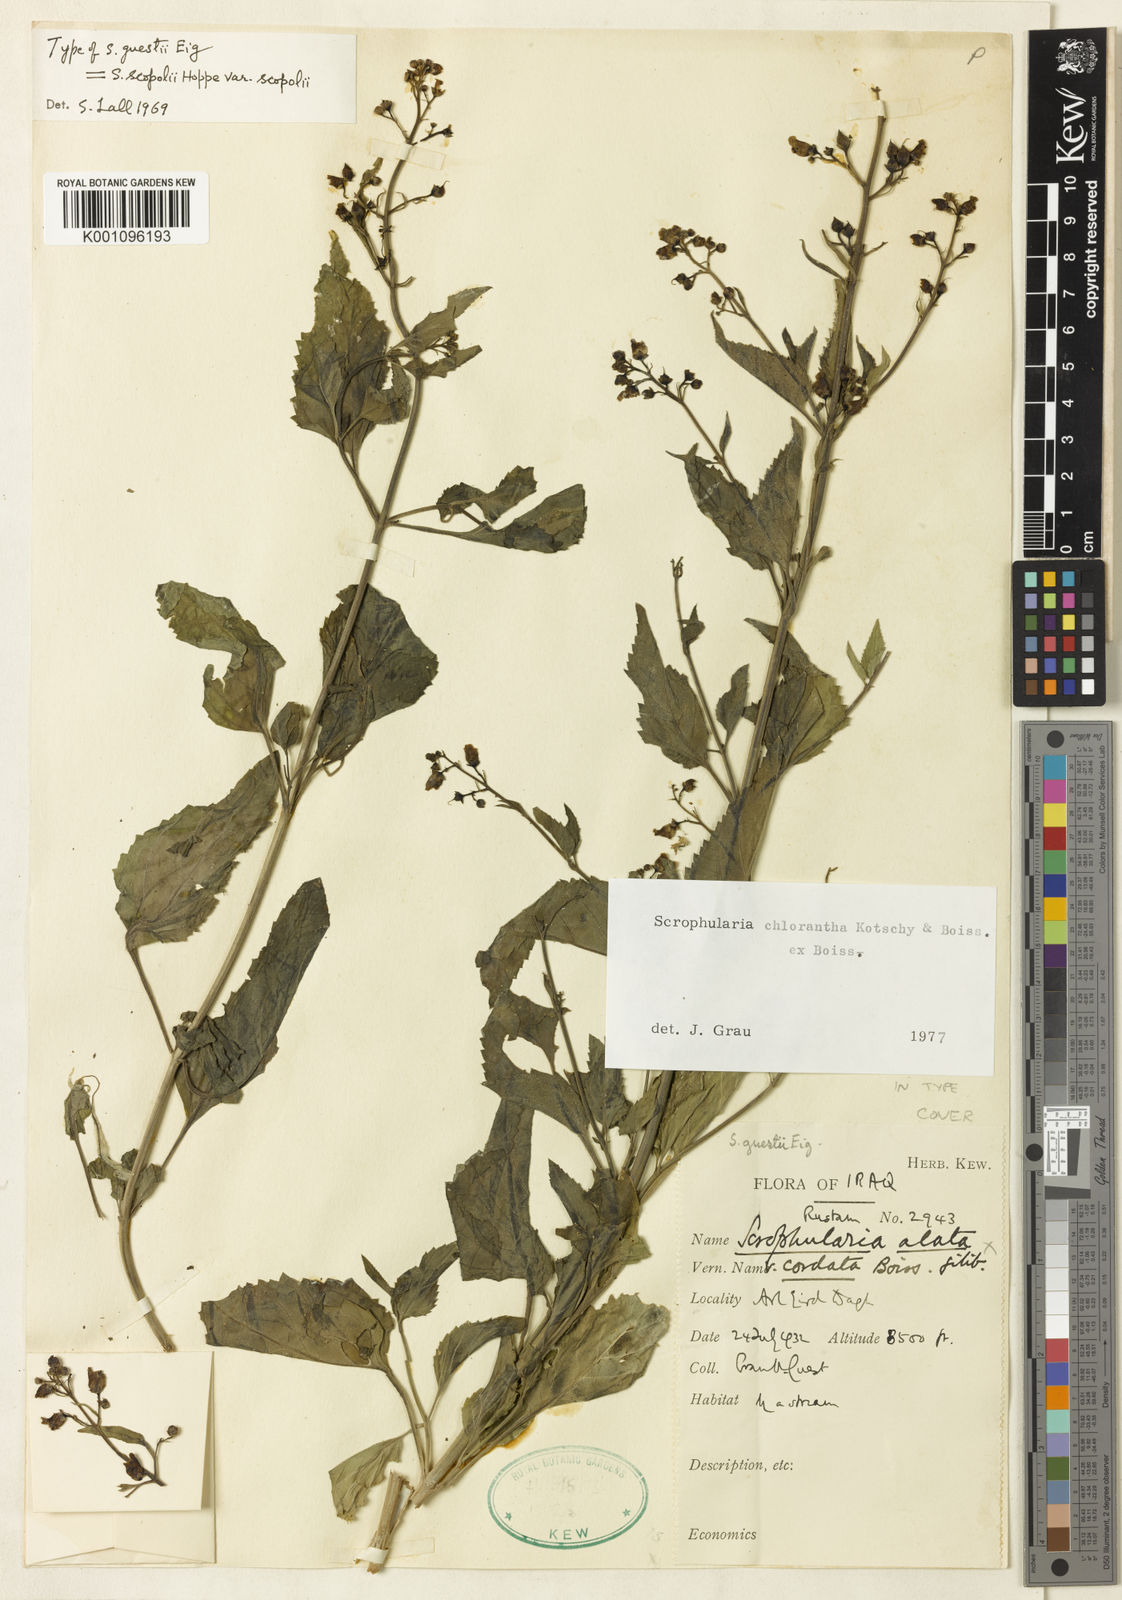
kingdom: Plantae
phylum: Tracheophyta
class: Magnoliopsida
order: Lamiales
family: Scrophulariaceae
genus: Scrophularia
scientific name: Scrophularia chlorantha
